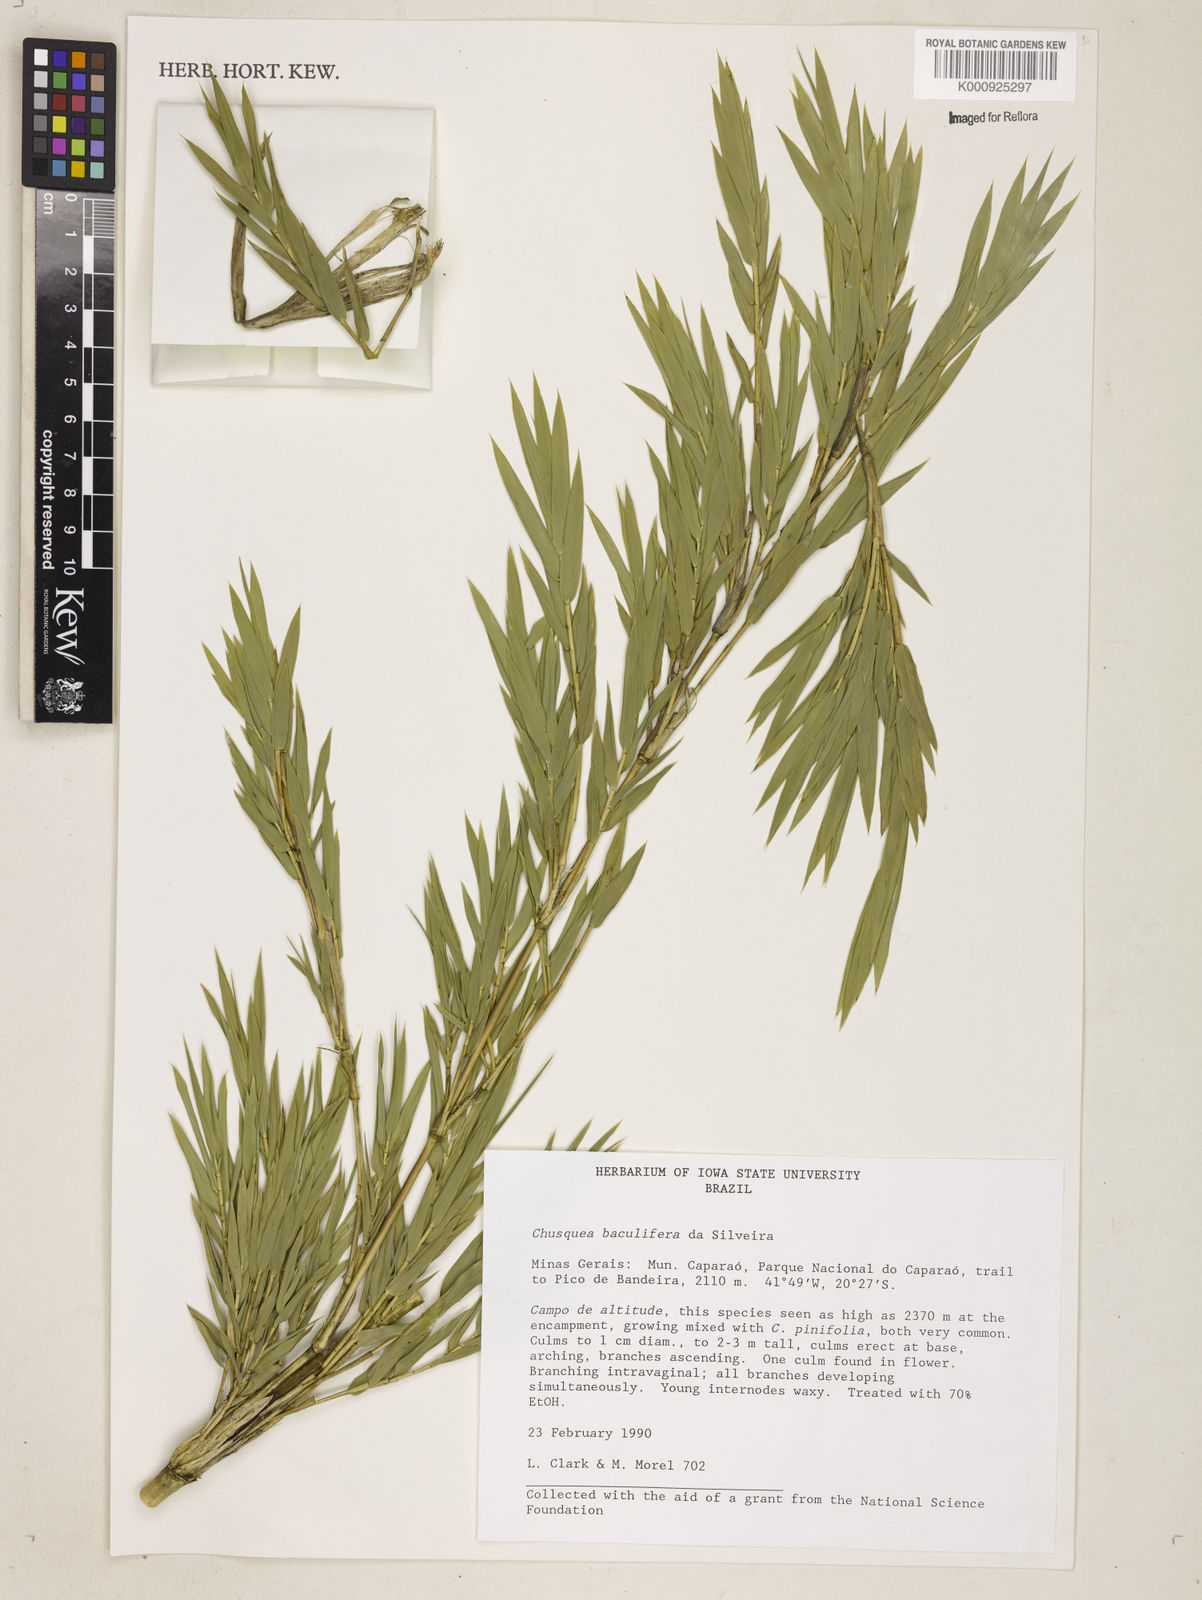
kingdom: Plantae
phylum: Tracheophyta
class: Liliopsida
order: Poales
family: Poaceae
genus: Chusquea
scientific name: Chusquea baculifera
